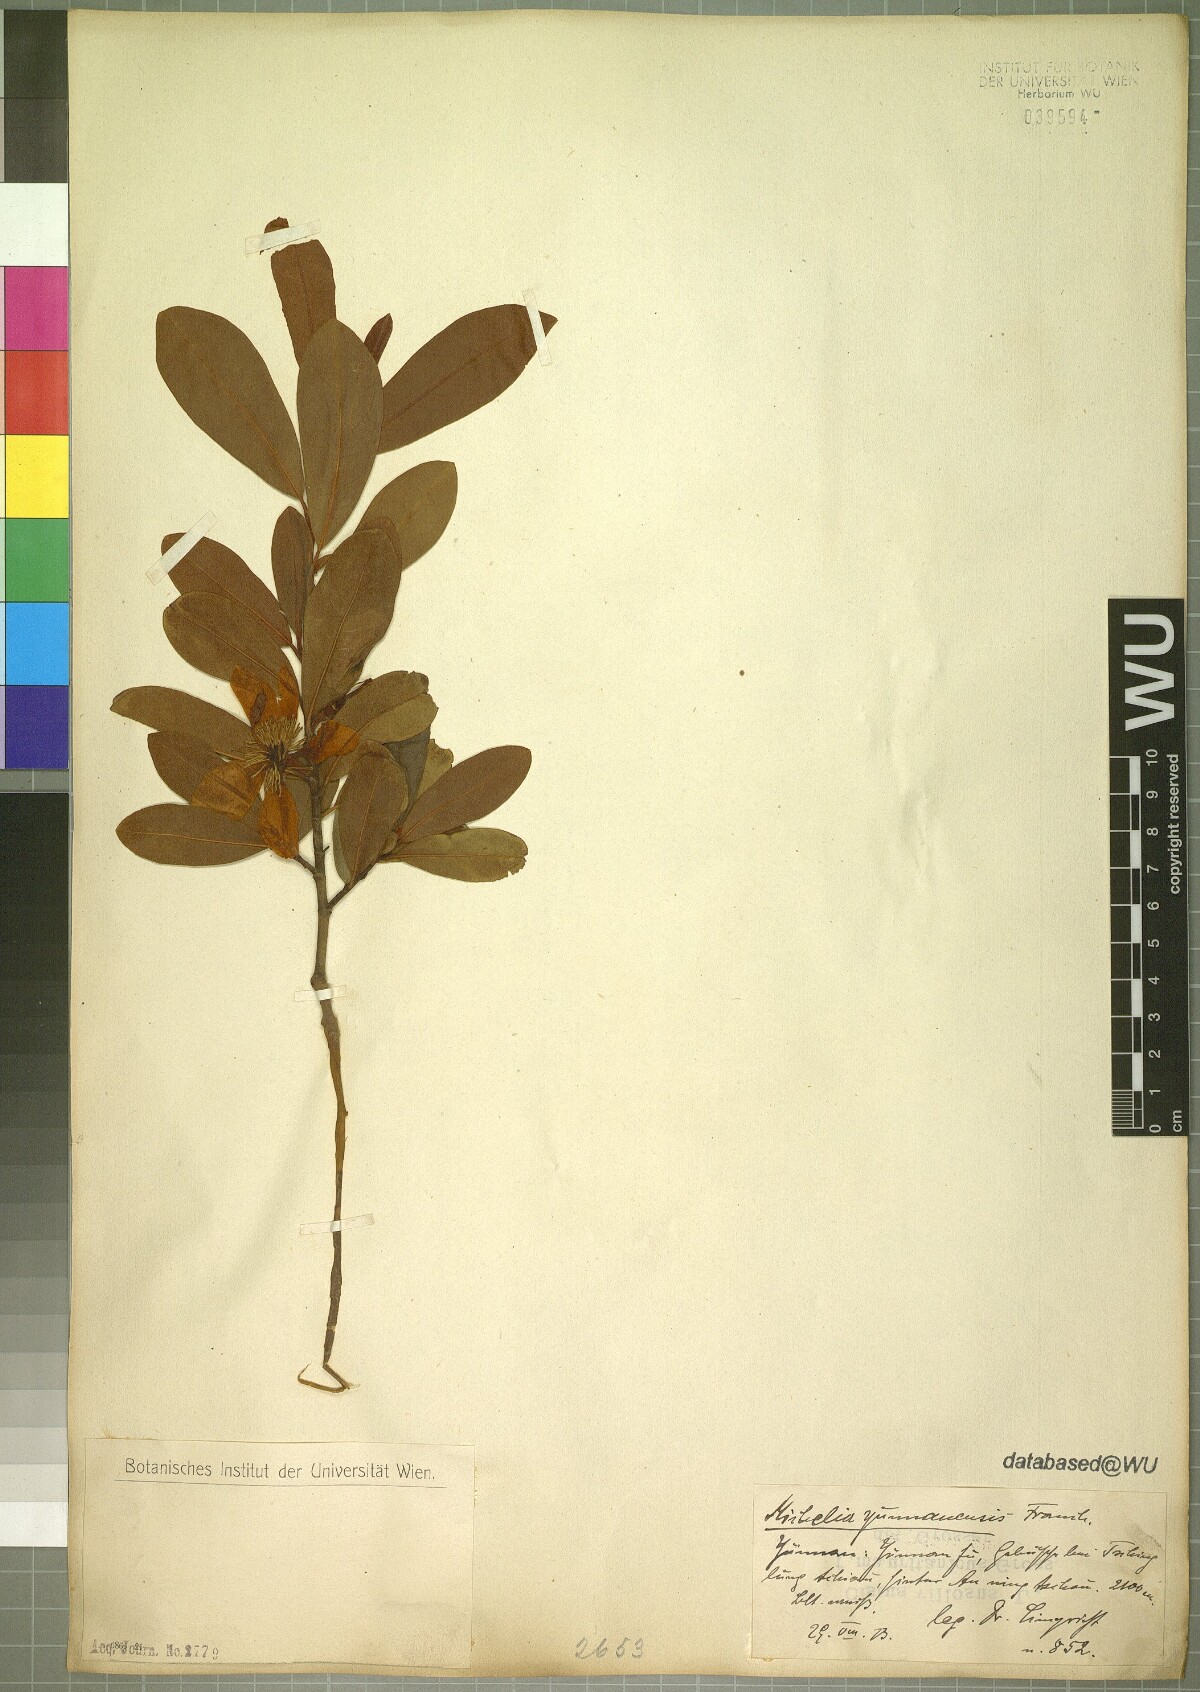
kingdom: Plantae
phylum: Tracheophyta
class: Magnoliopsida
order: Magnoliales
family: Magnoliaceae
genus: Magnolia
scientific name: Magnolia laevifolia
